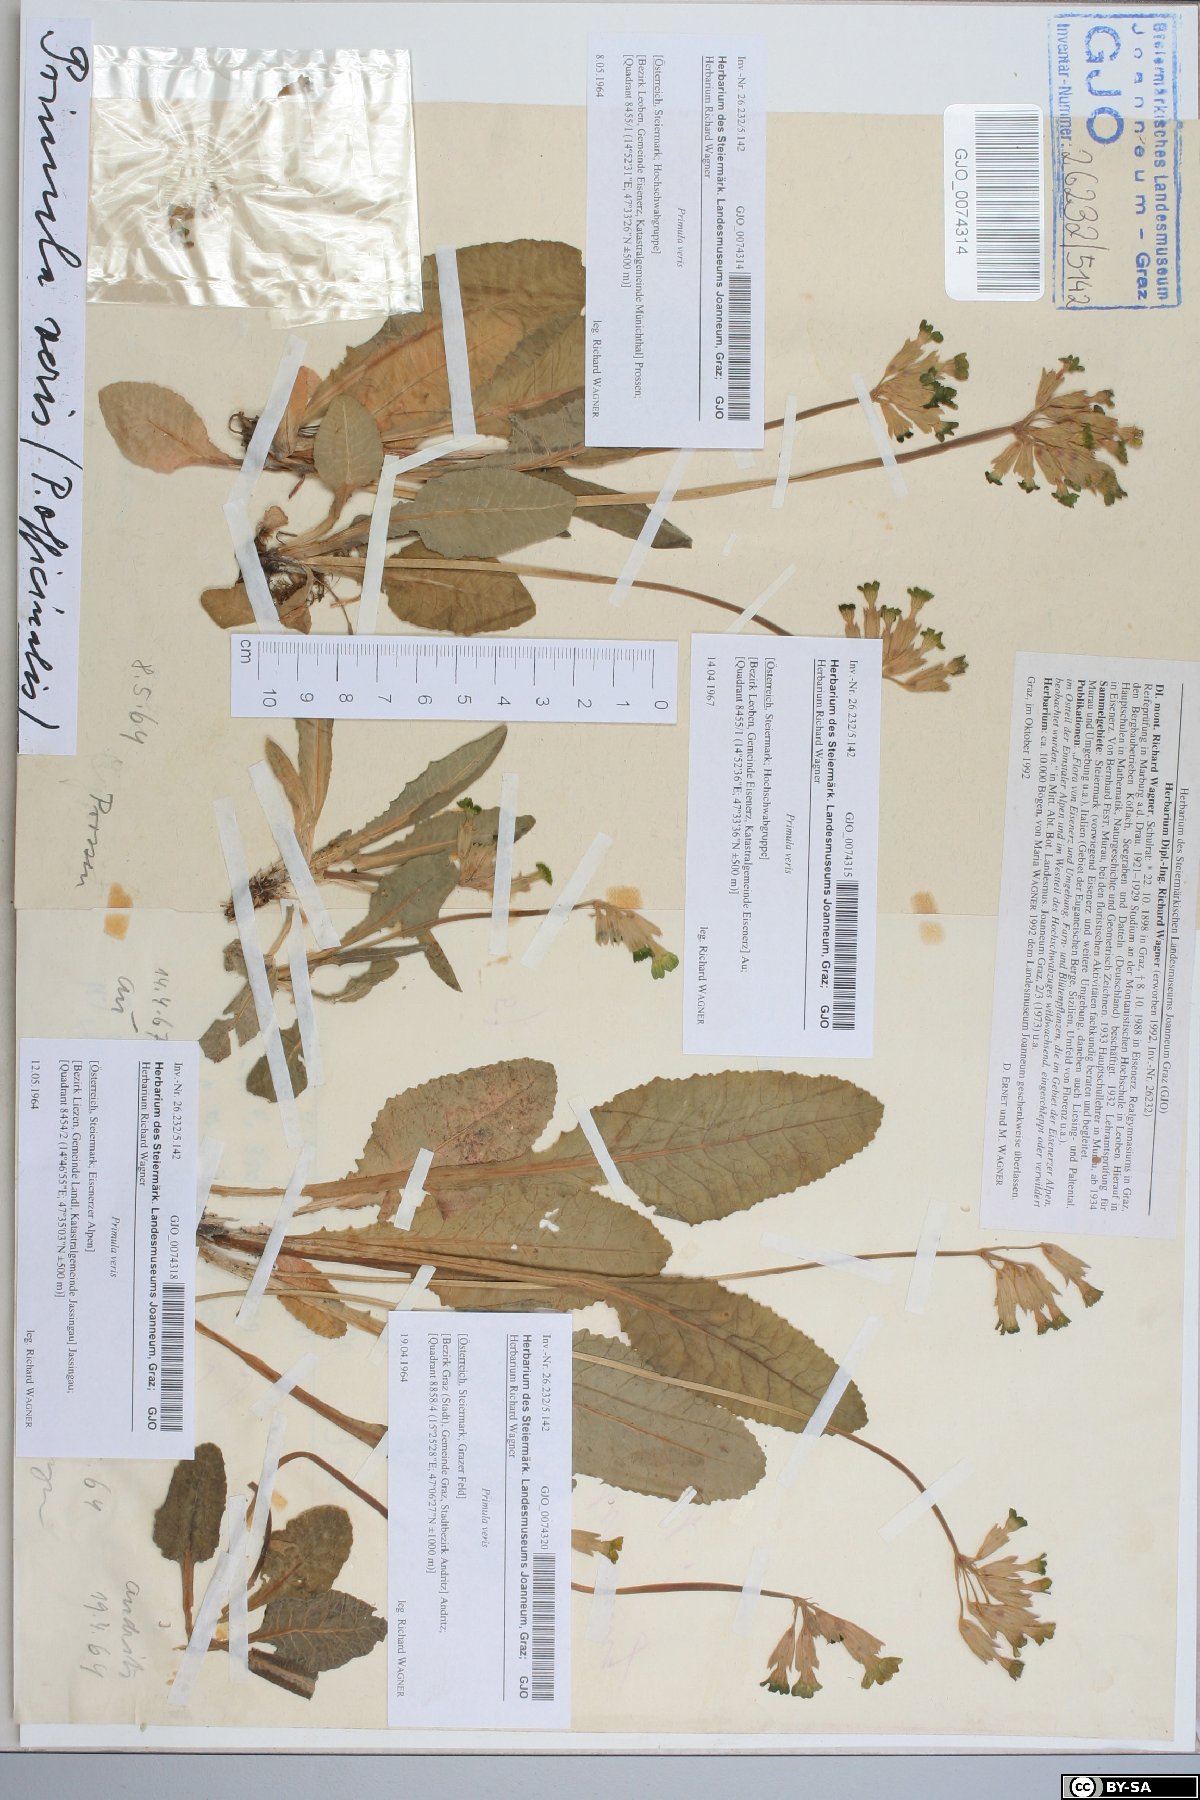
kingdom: Plantae
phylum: Tracheophyta
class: Magnoliopsida
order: Ericales
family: Primulaceae
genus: Primula
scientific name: Primula veris
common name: Cowslip
